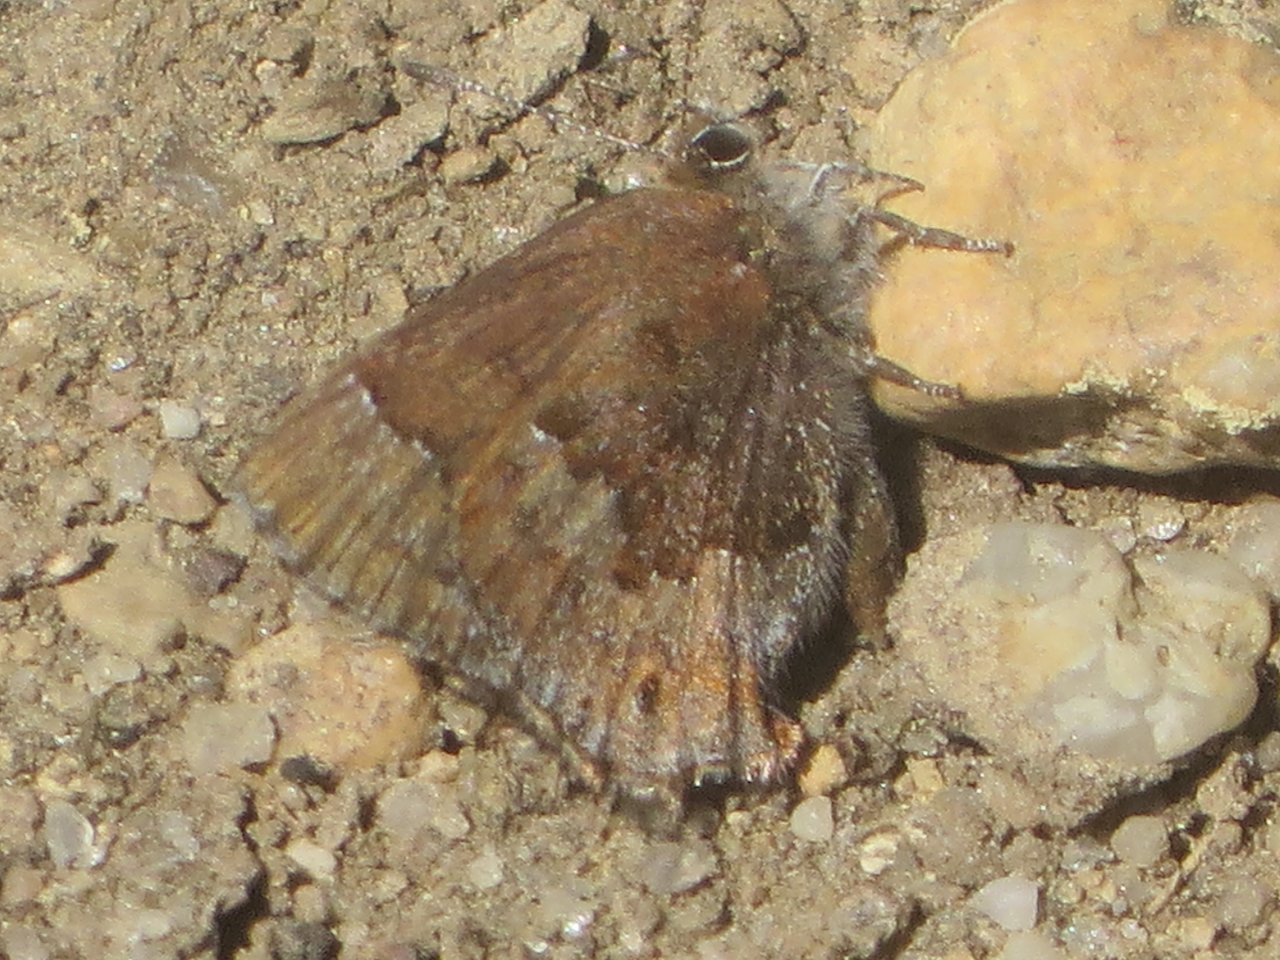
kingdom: Animalia
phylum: Arthropoda
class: Insecta
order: Lepidoptera
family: Lycaenidae
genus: Thecla
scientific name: Thecla irus
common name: Frosted Elfin
